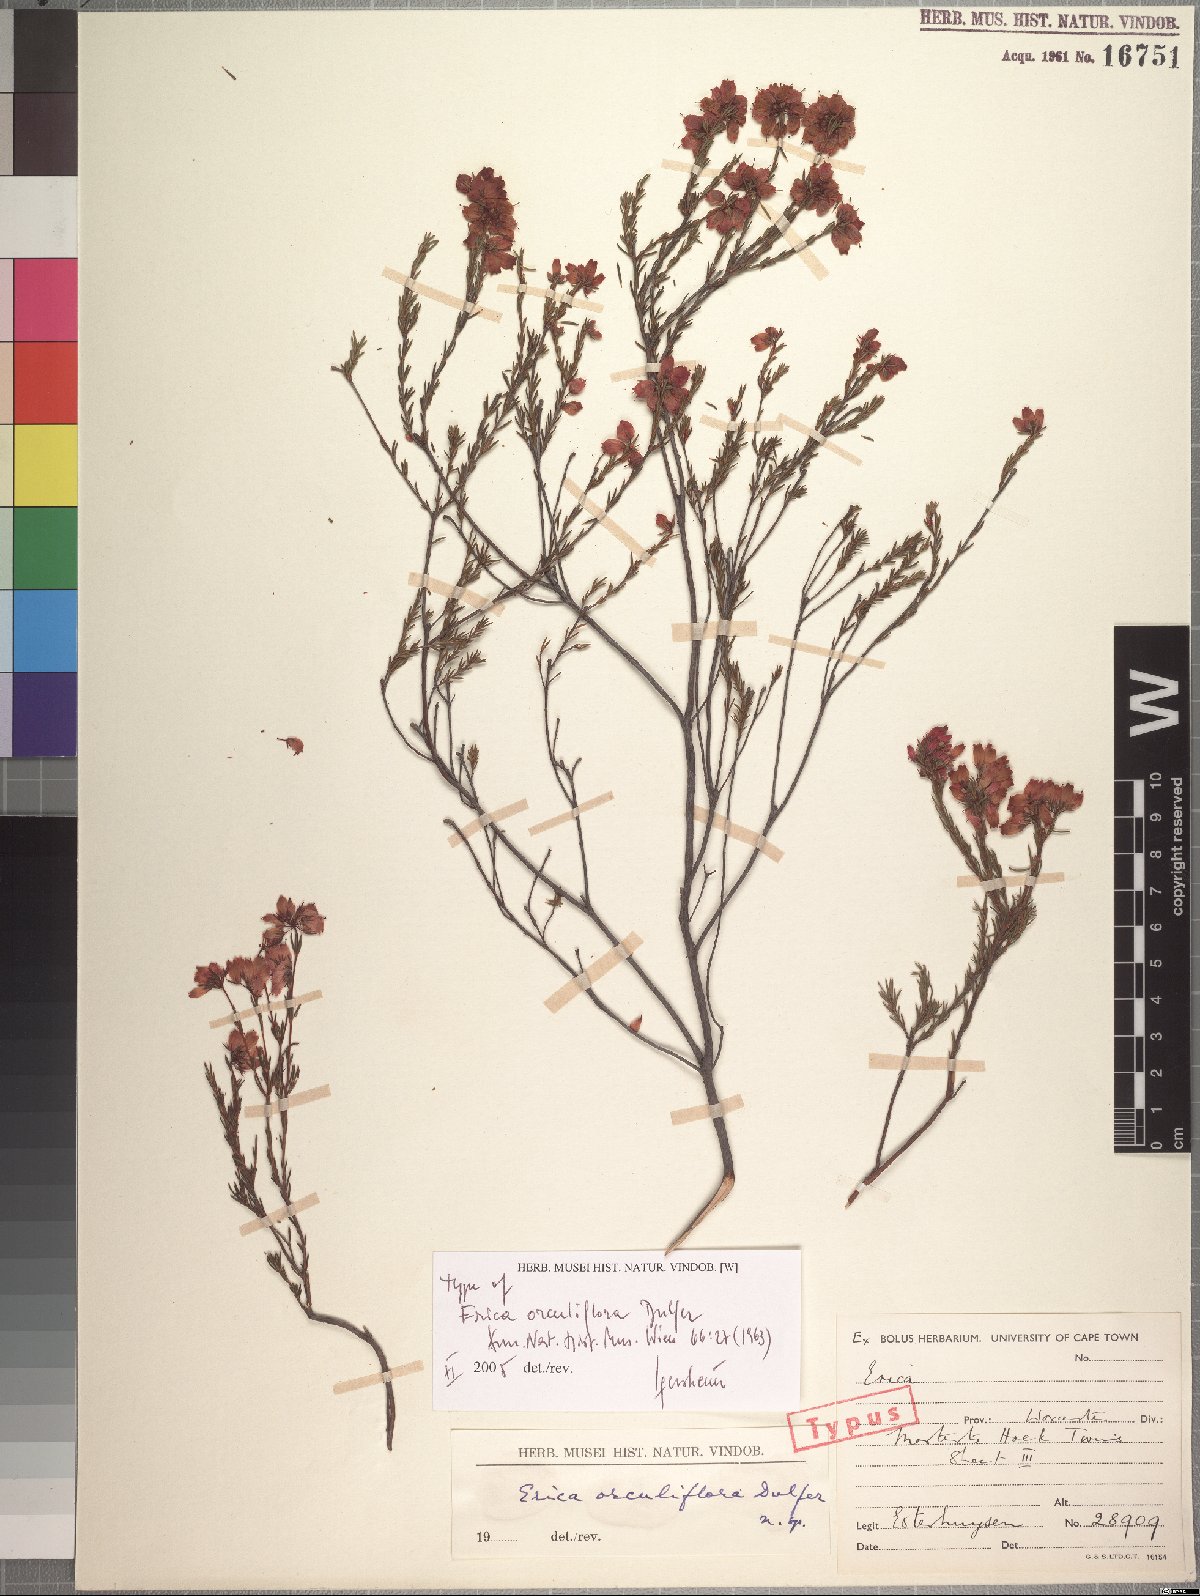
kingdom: Plantae
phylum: Tracheophyta
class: Magnoliopsida
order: Ericales
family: Ericaceae
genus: Erica
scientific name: Erica orculiflora
